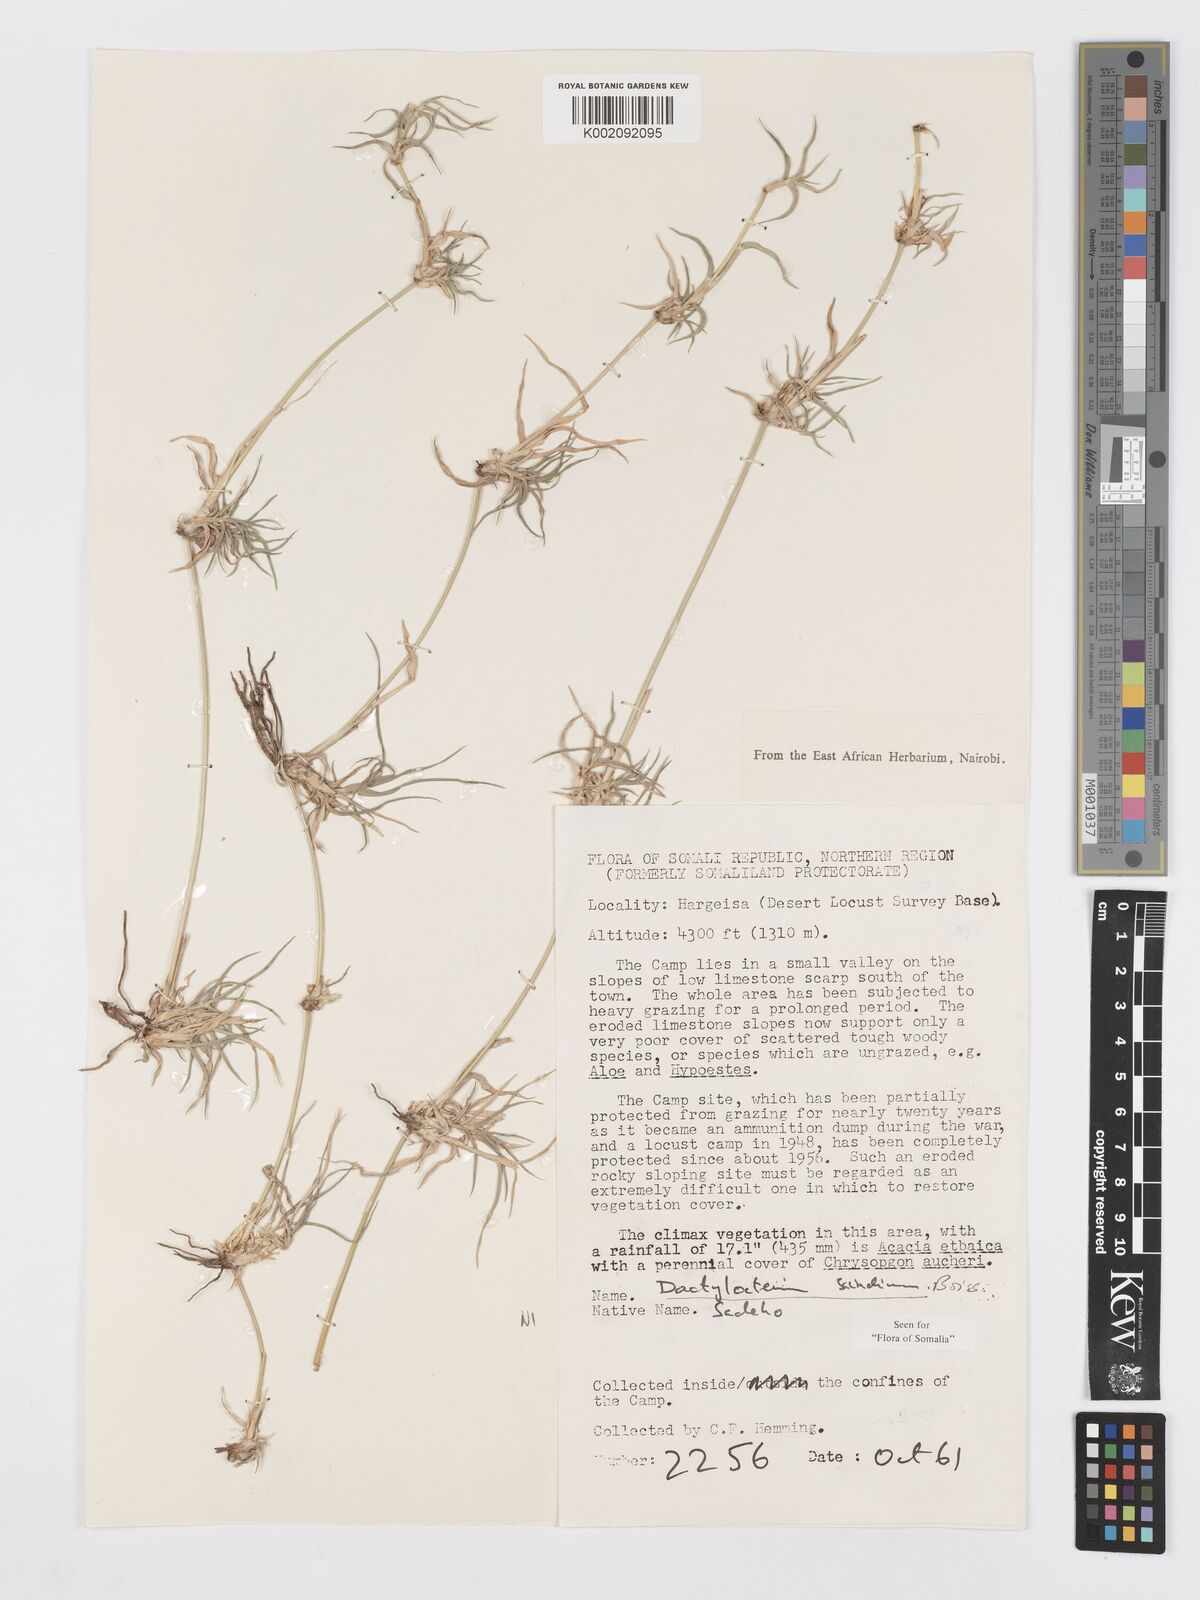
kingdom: Plantae
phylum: Tracheophyta
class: Liliopsida
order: Poales
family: Poaceae
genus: Dactyloctenium
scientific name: Dactyloctenium scindicum
